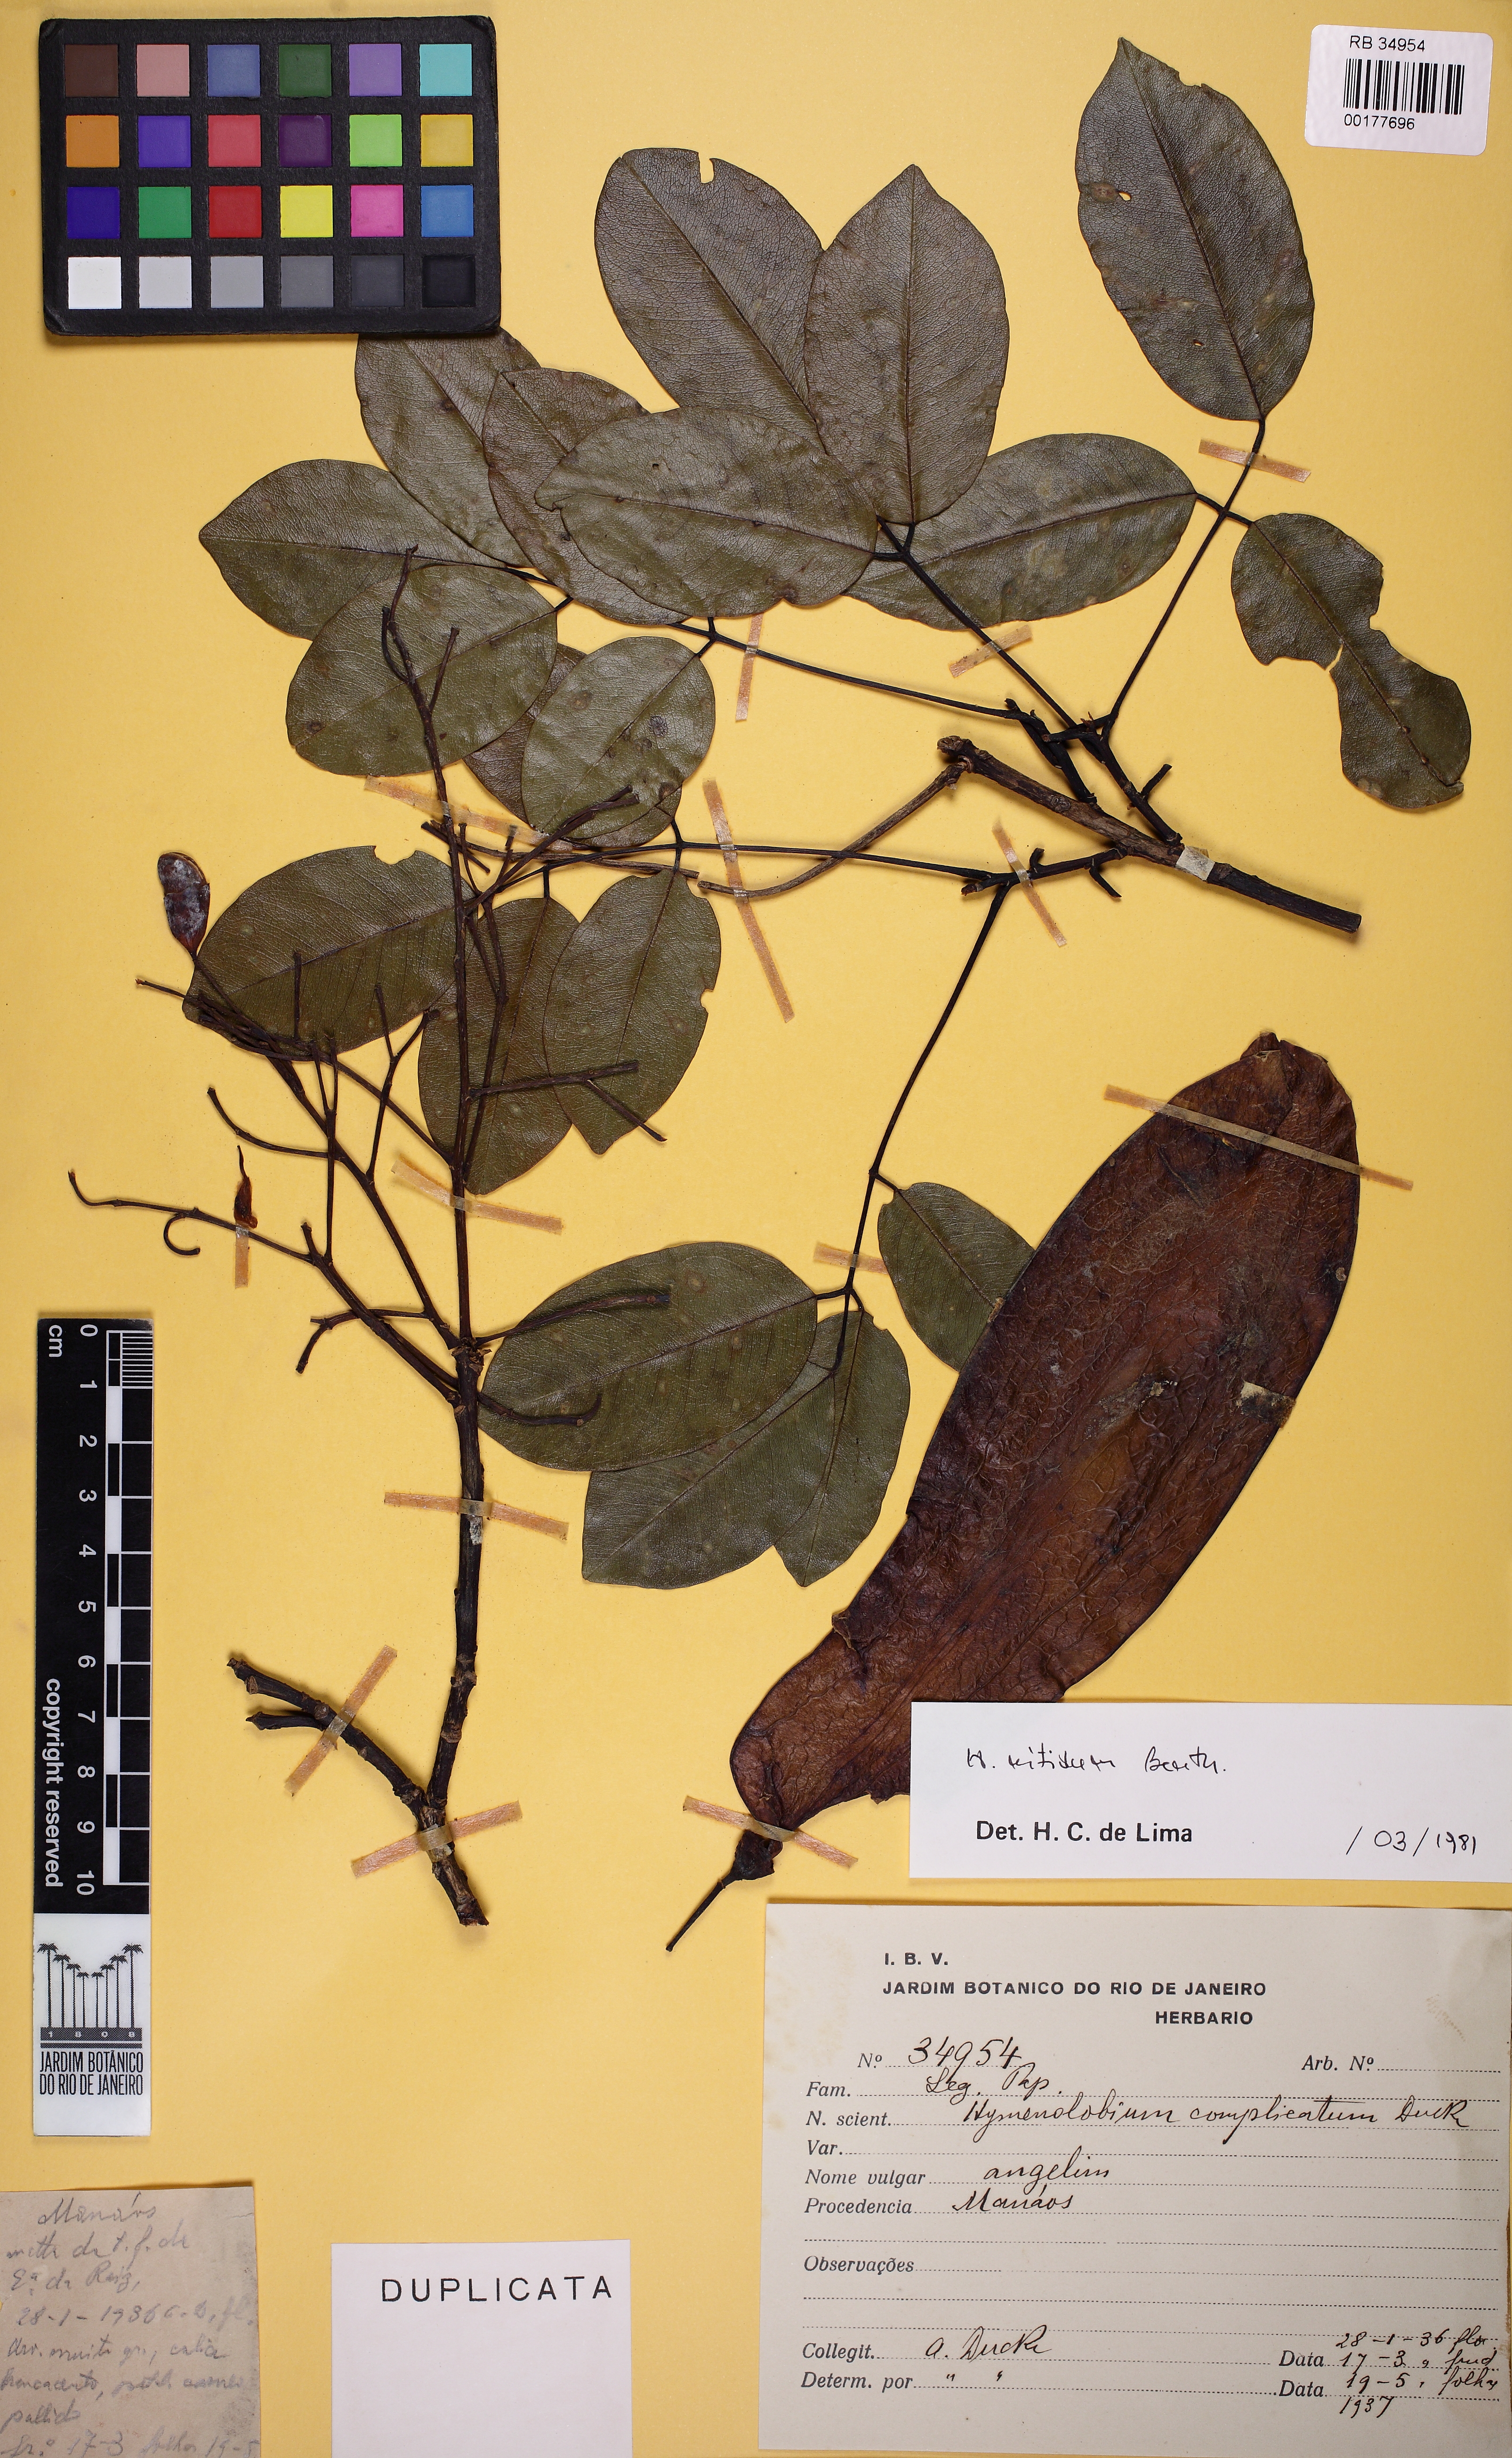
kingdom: Plantae
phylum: Tracheophyta
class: Magnoliopsida
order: Fabales
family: Fabaceae
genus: Hymenolobium
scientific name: Hymenolobium nitidum
